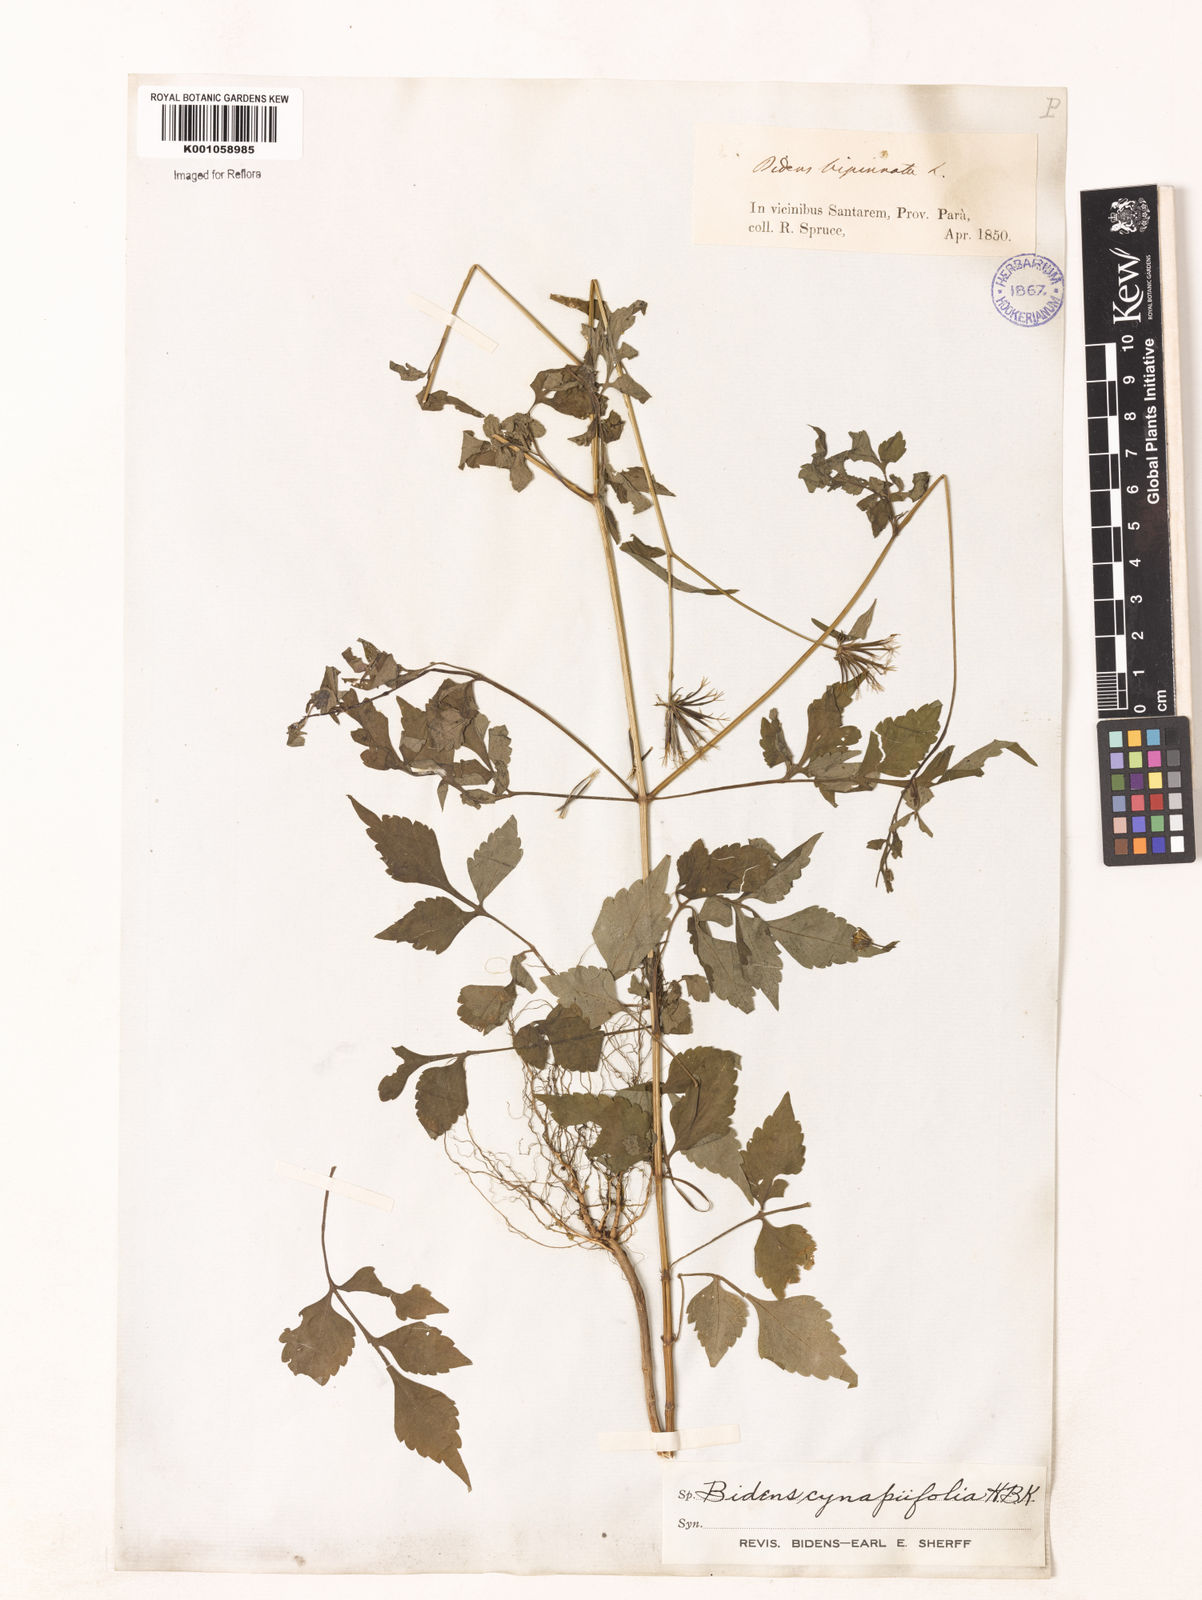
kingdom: Plantae
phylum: Tracheophyta
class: Magnoliopsida
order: Asterales
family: Asteraceae
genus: Bidens
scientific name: Bidens cynapiifolia
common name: Beggar's tick
